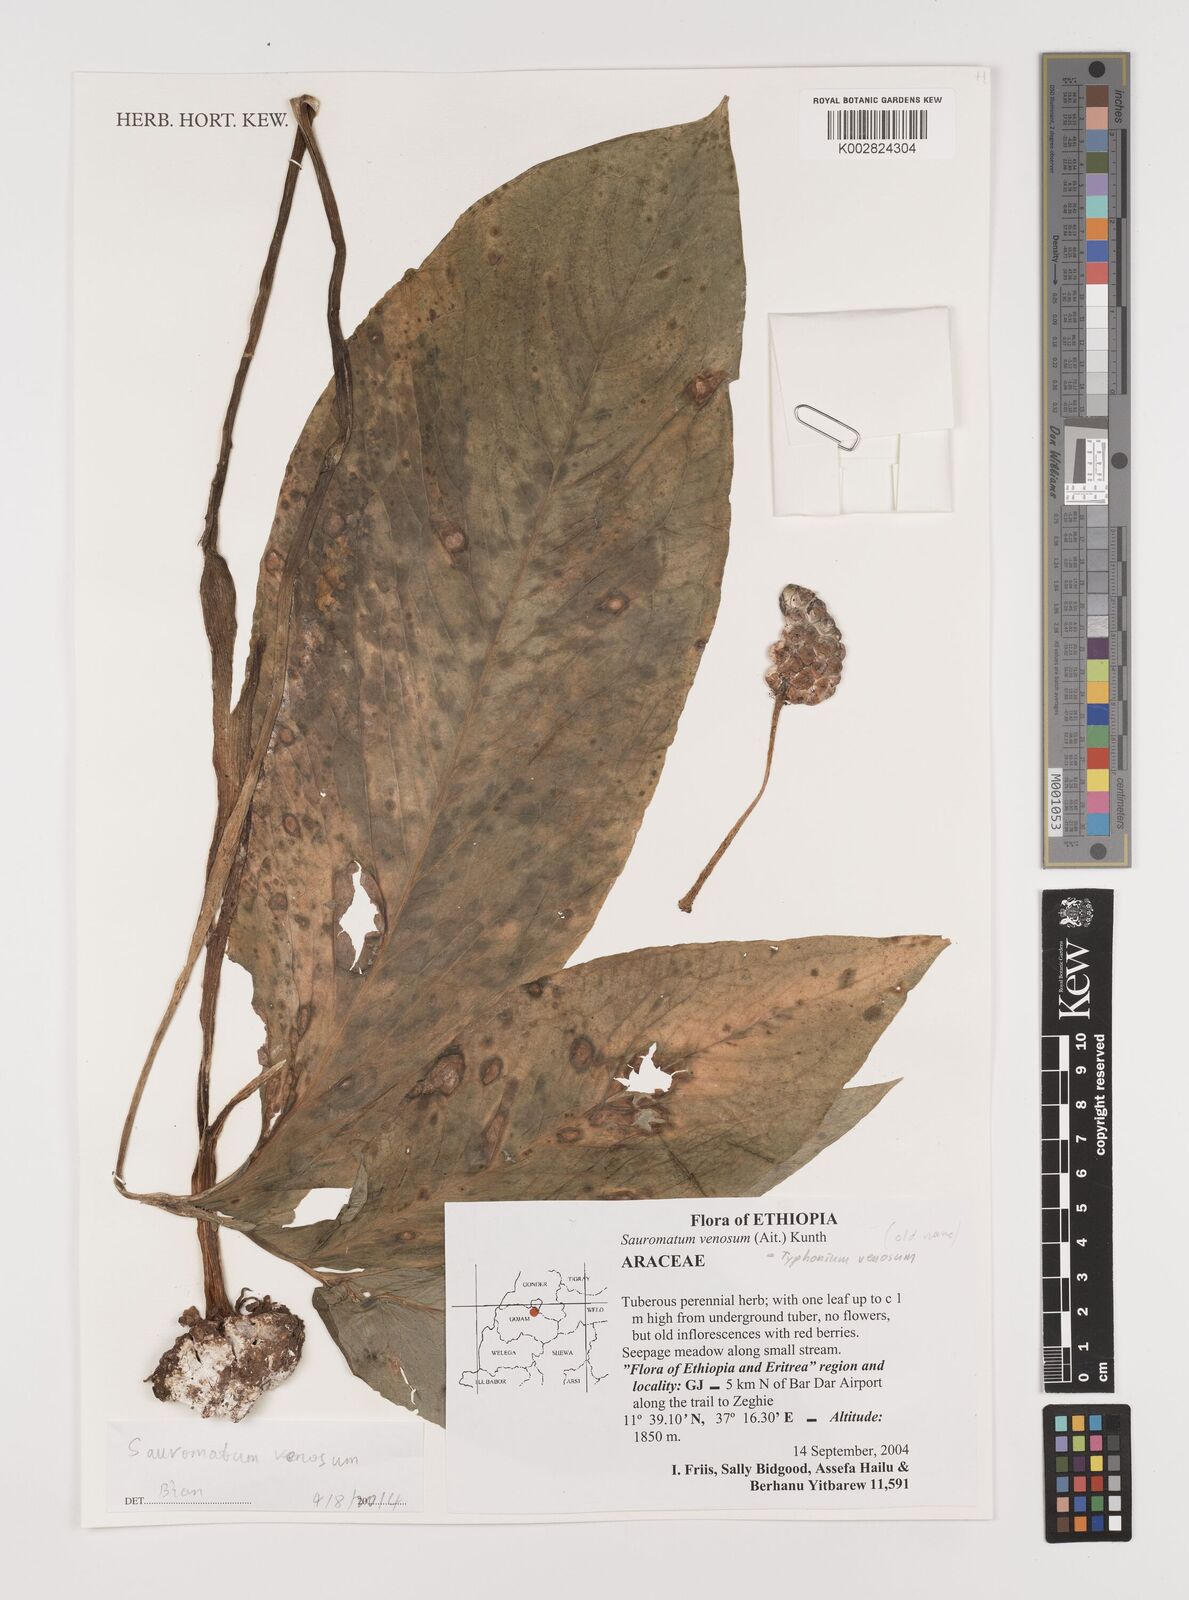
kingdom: Plantae
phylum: Tracheophyta
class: Liliopsida
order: Alismatales
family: Araceae
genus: Sauromatum
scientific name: Sauromatum venosum
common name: Voodoo lily
